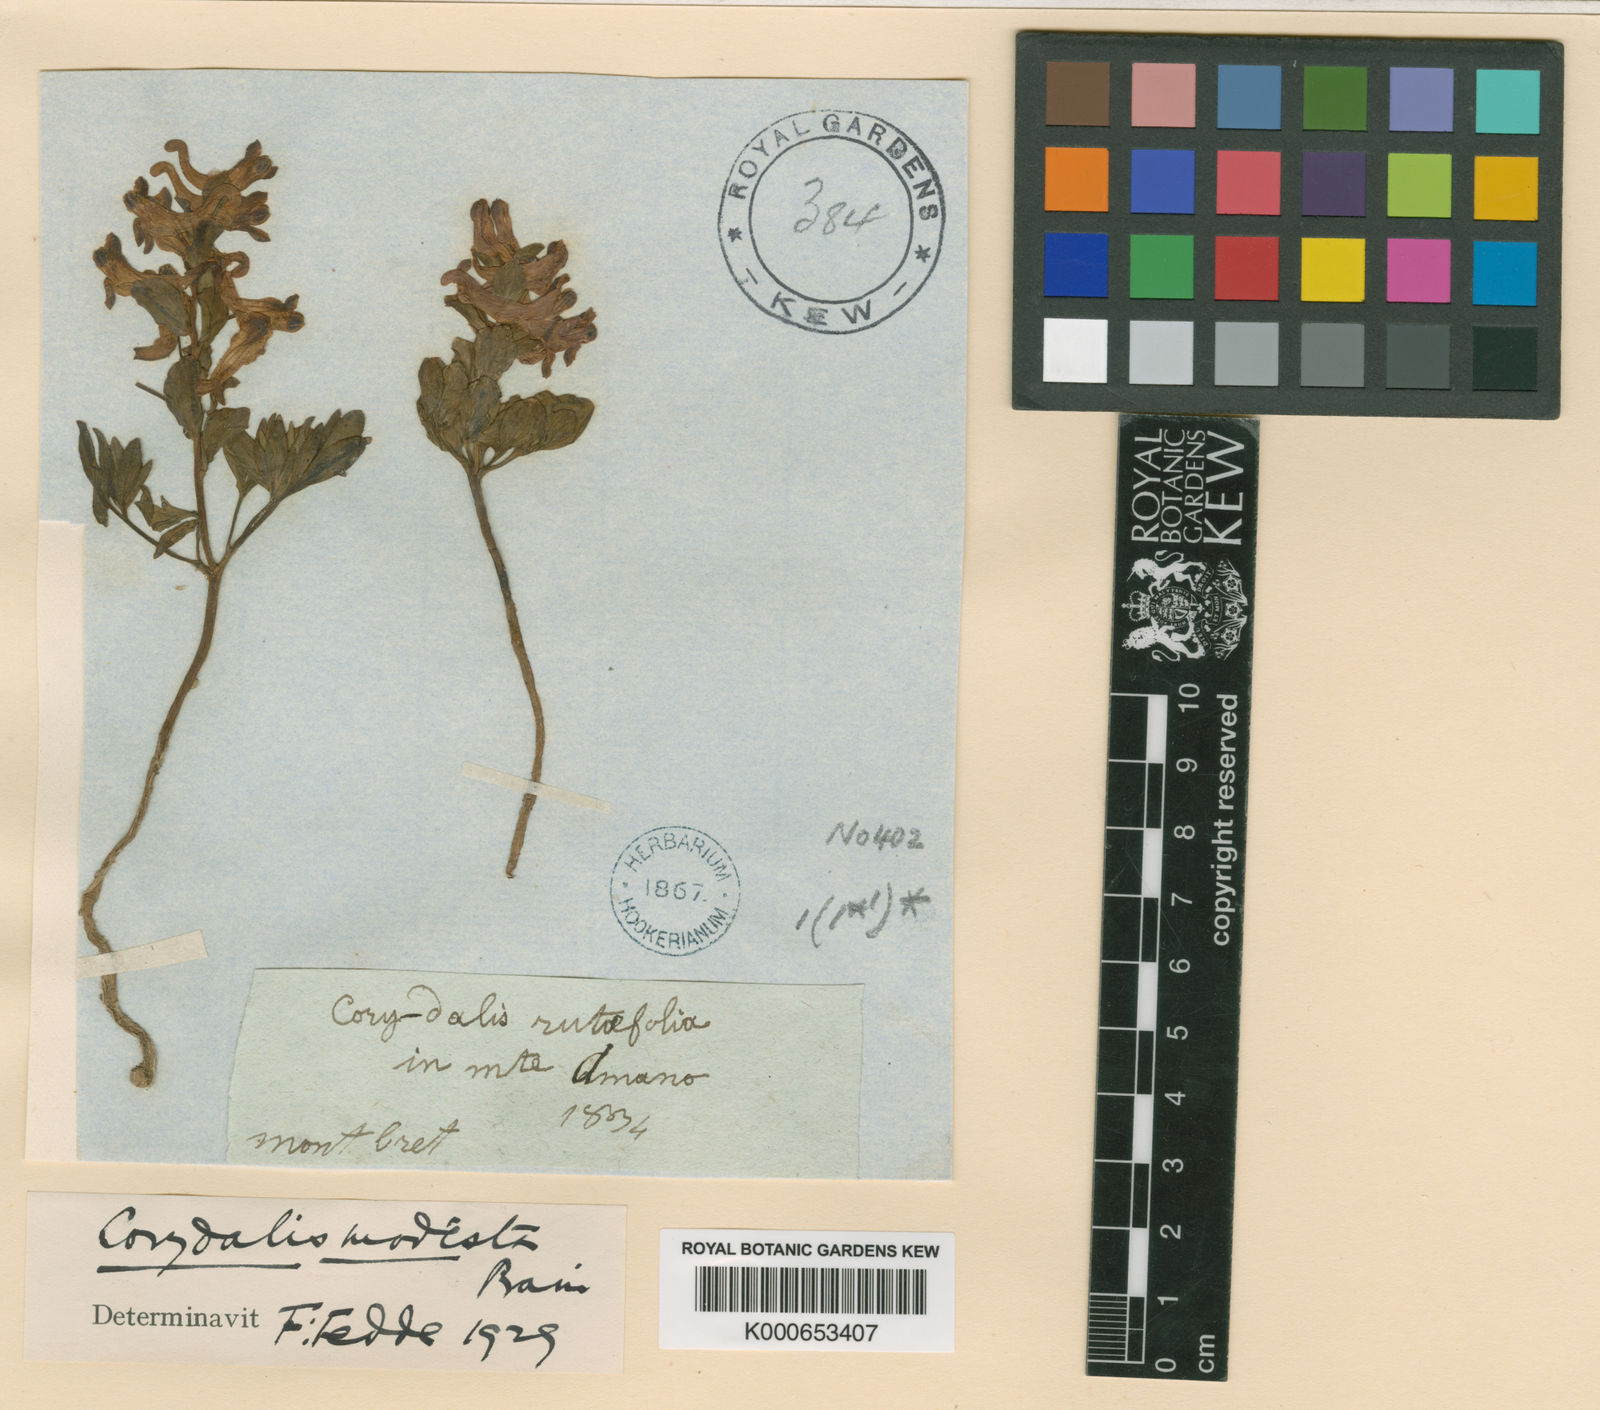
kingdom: Plantae
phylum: Tracheophyta
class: Magnoliopsida
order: Ranunculales
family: Papaveraceae
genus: Corydalis
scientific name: Corydalis rutifolia
